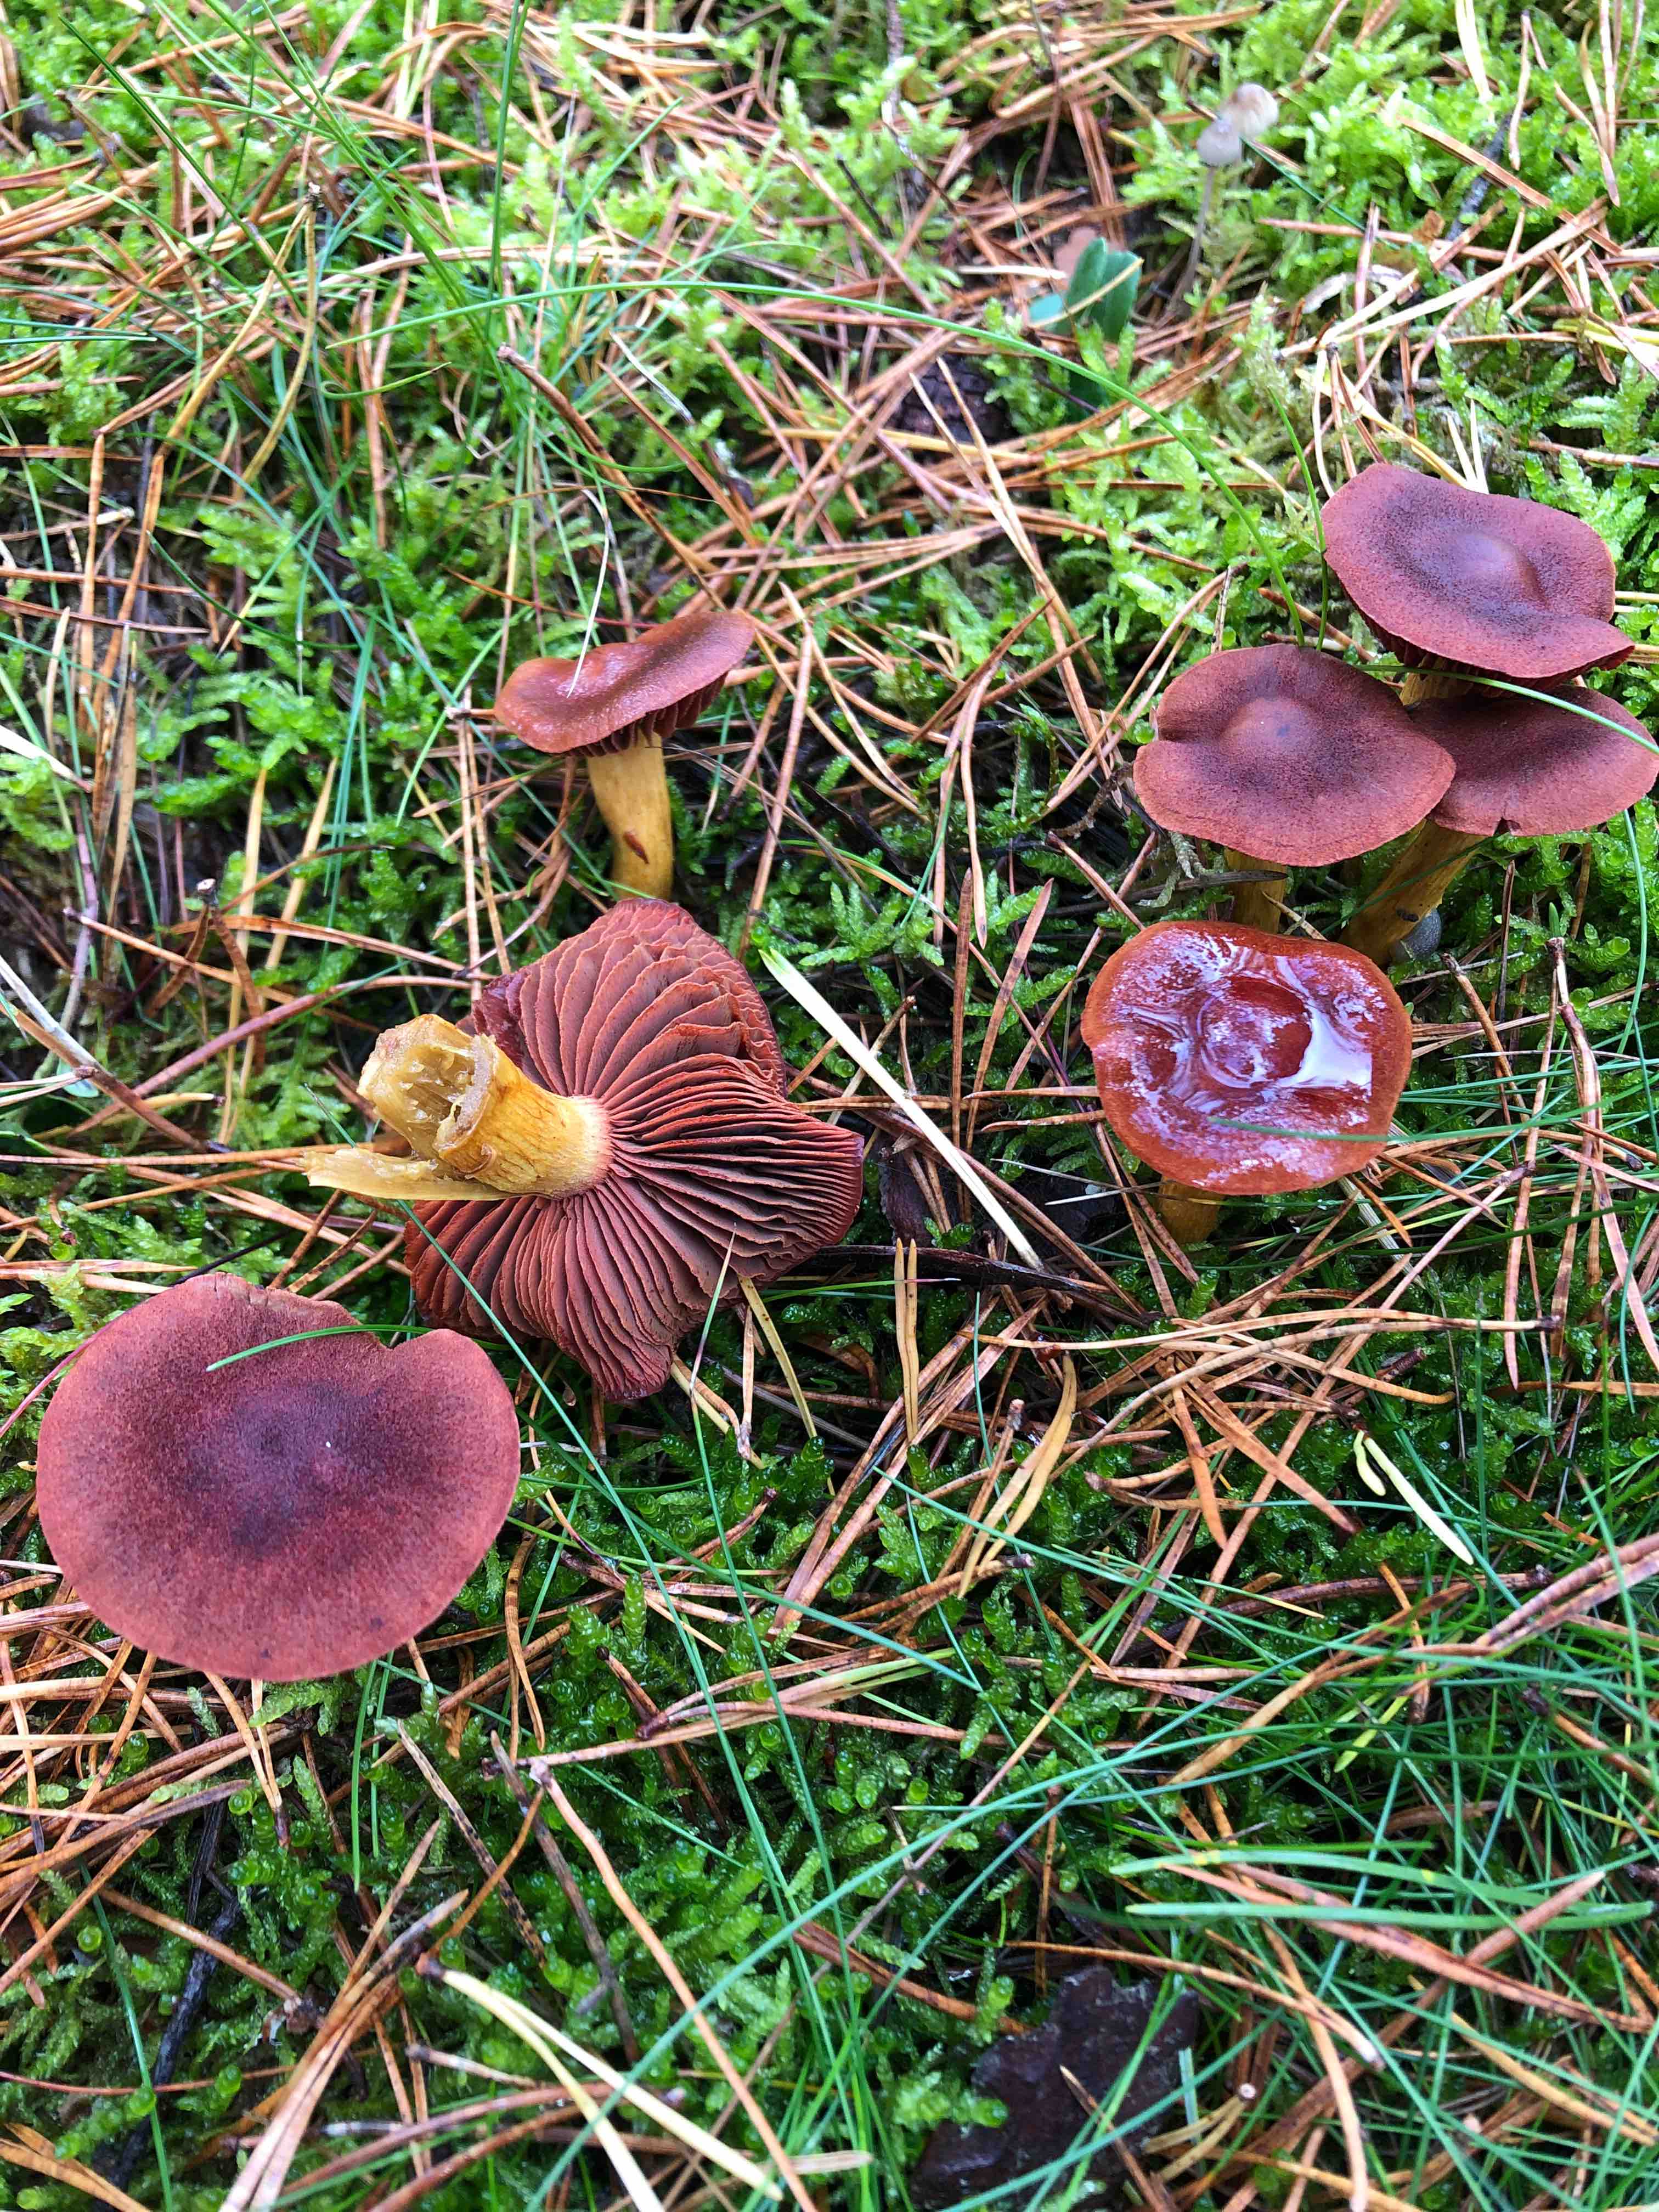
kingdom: Fungi
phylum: Basidiomycota
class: Agaricomycetes
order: Agaricales
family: Cortinariaceae
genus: Cortinarius
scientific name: Cortinarius
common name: cinnoberbladet slørhat
